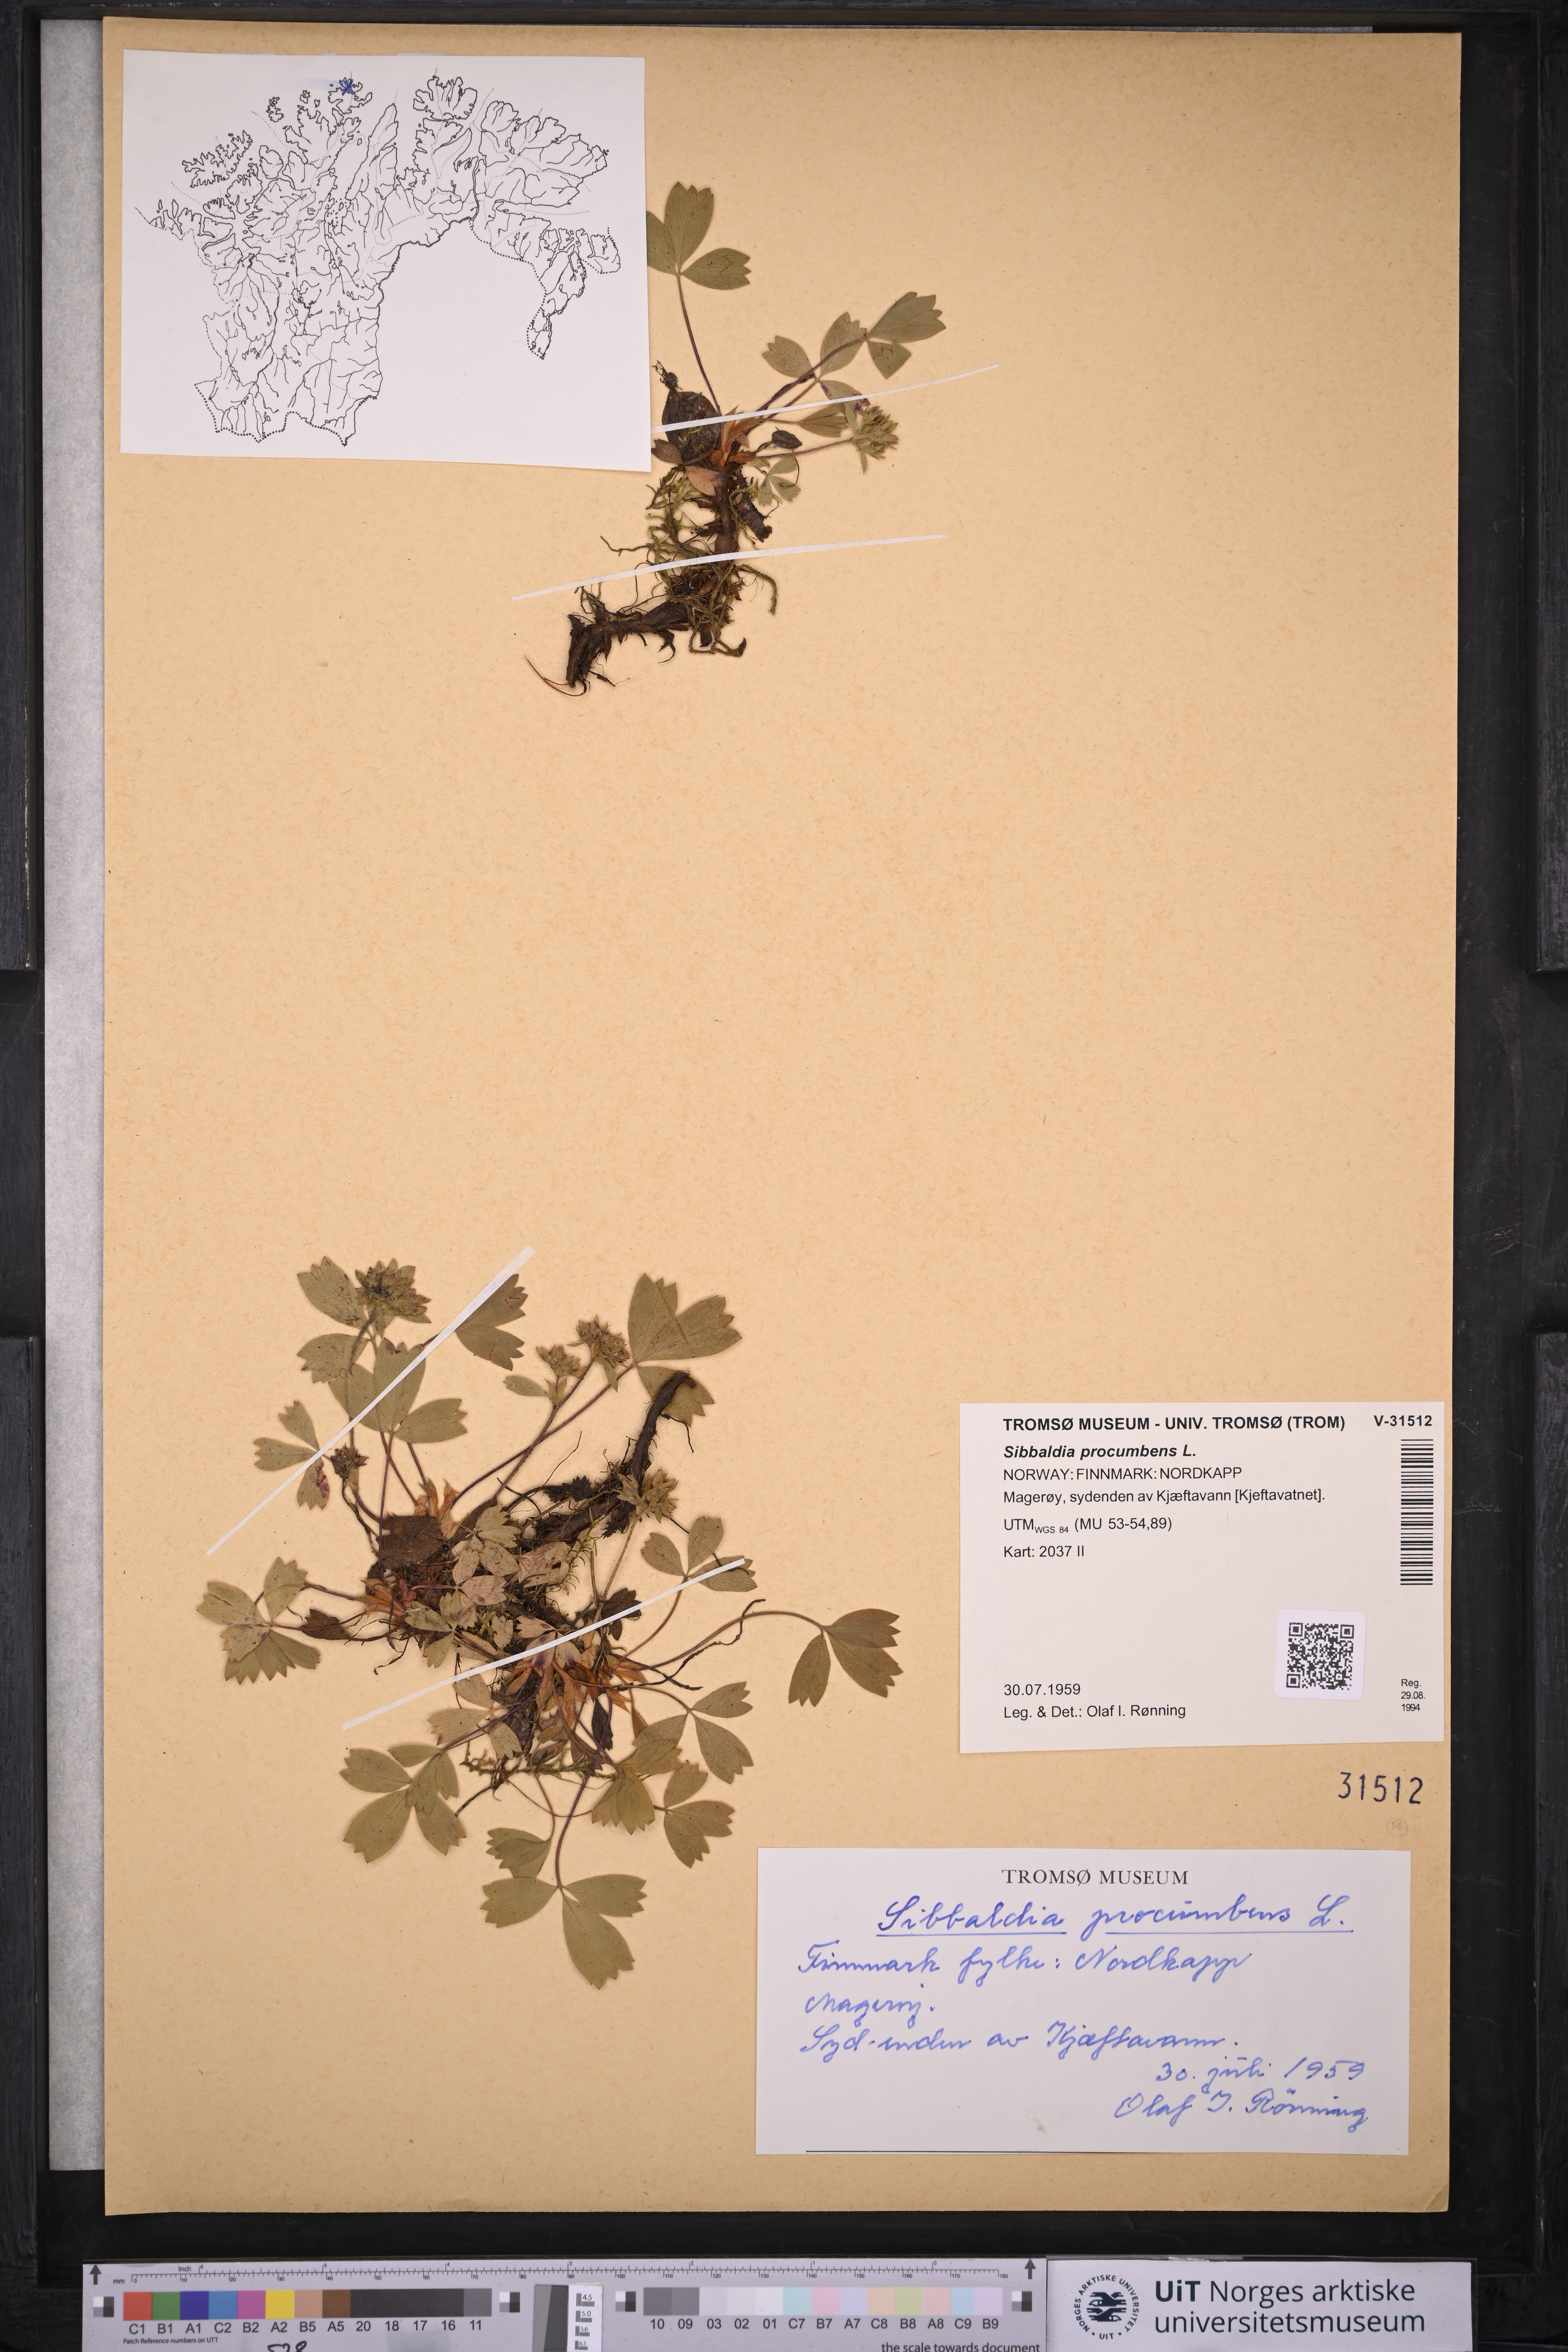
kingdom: Plantae
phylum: Tracheophyta
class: Magnoliopsida
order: Rosales
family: Rosaceae
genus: Sibbaldia
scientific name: Sibbaldia procumbens
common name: Creeping sibbaldia
